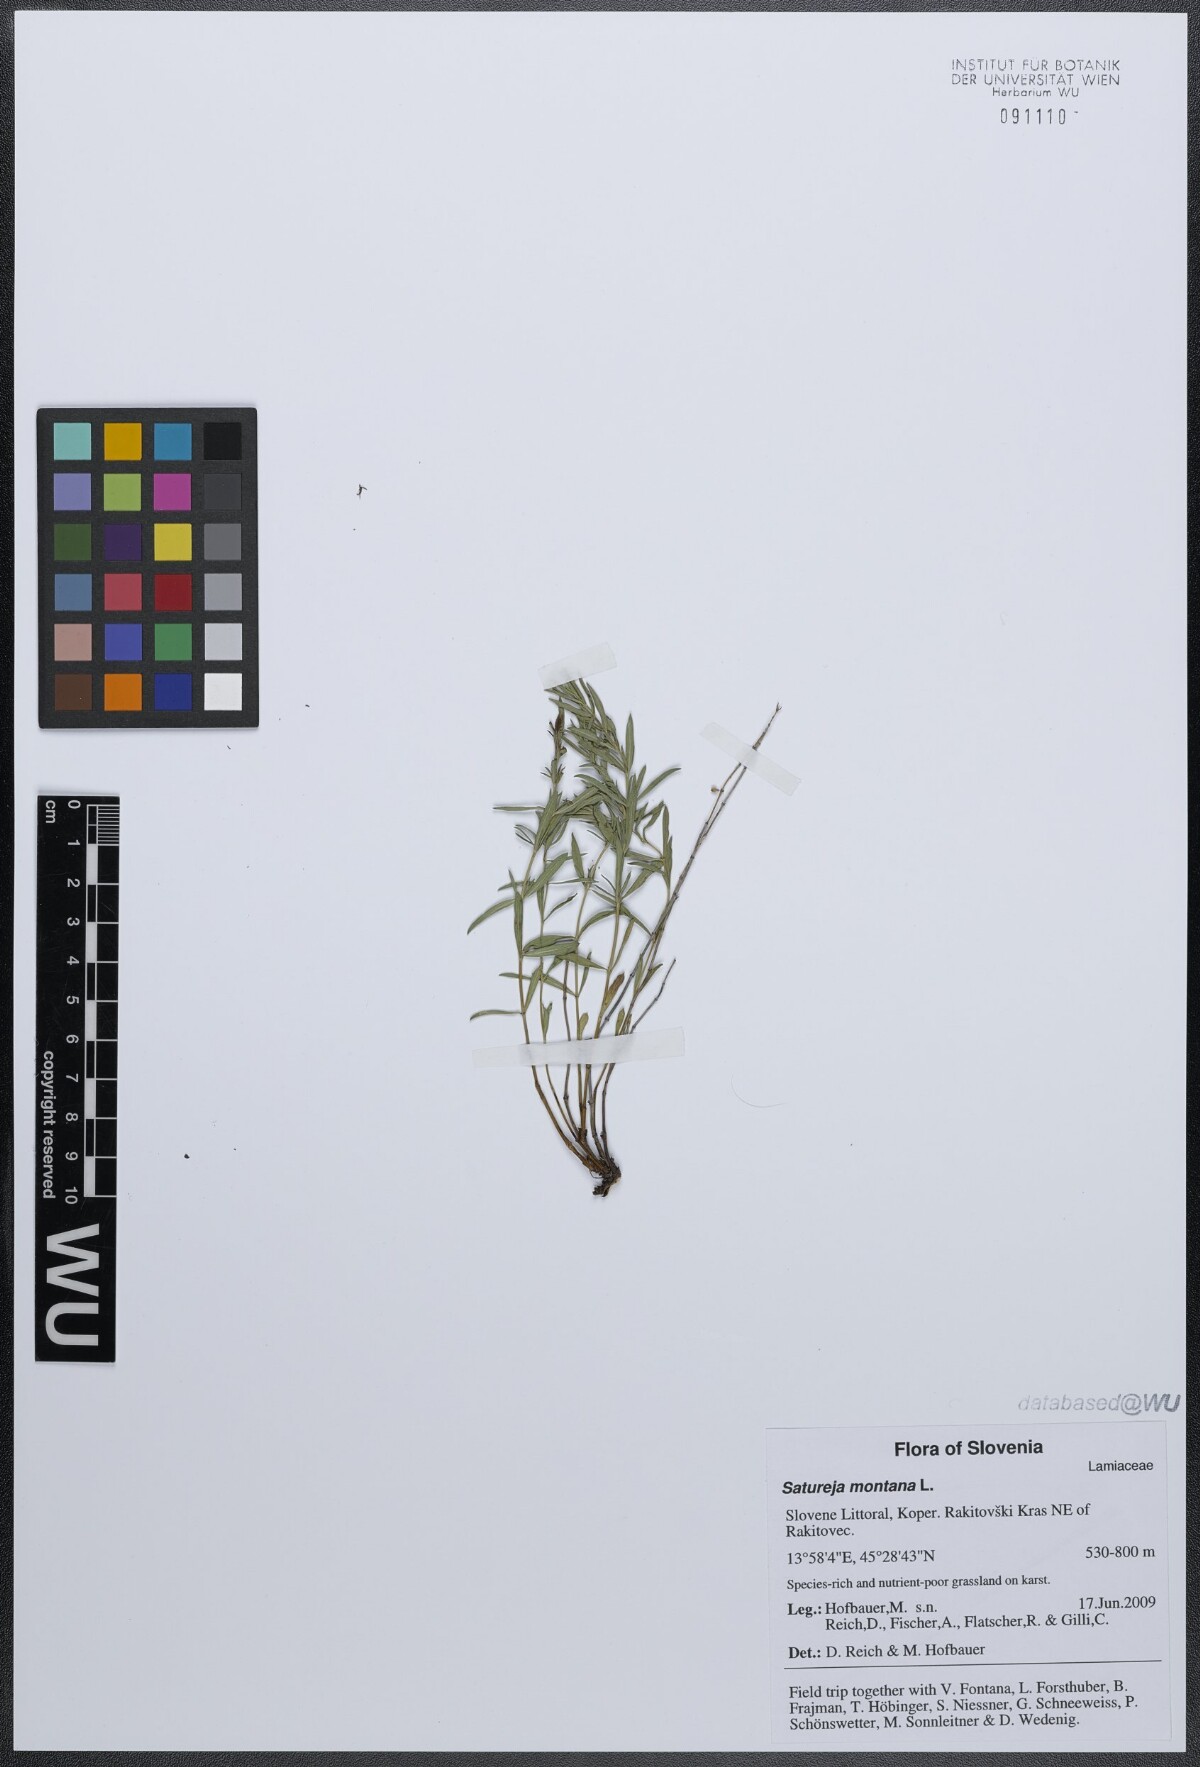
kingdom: Plantae
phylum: Tracheophyta
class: Magnoliopsida
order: Lamiales
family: Lamiaceae
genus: Satureja
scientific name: Satureja montana
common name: Winter savory
